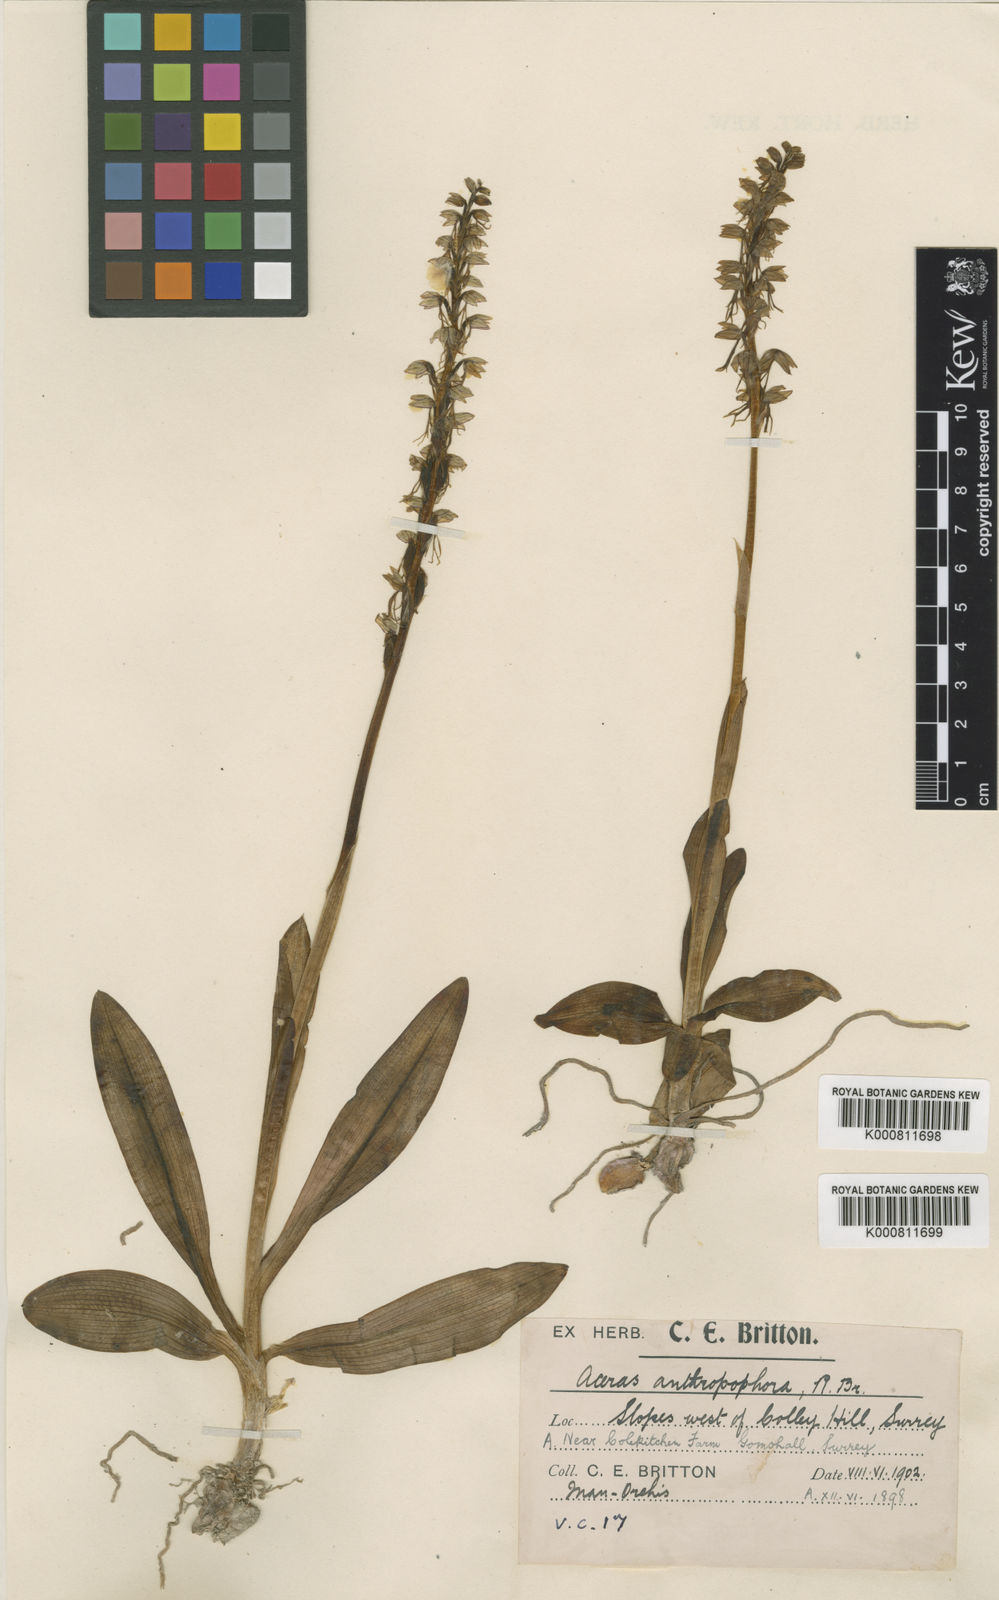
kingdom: Plantae
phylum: Tracheophyta
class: Liliopsida
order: Asparagales
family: Orchidaceae
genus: Orchis
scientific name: Orchis
